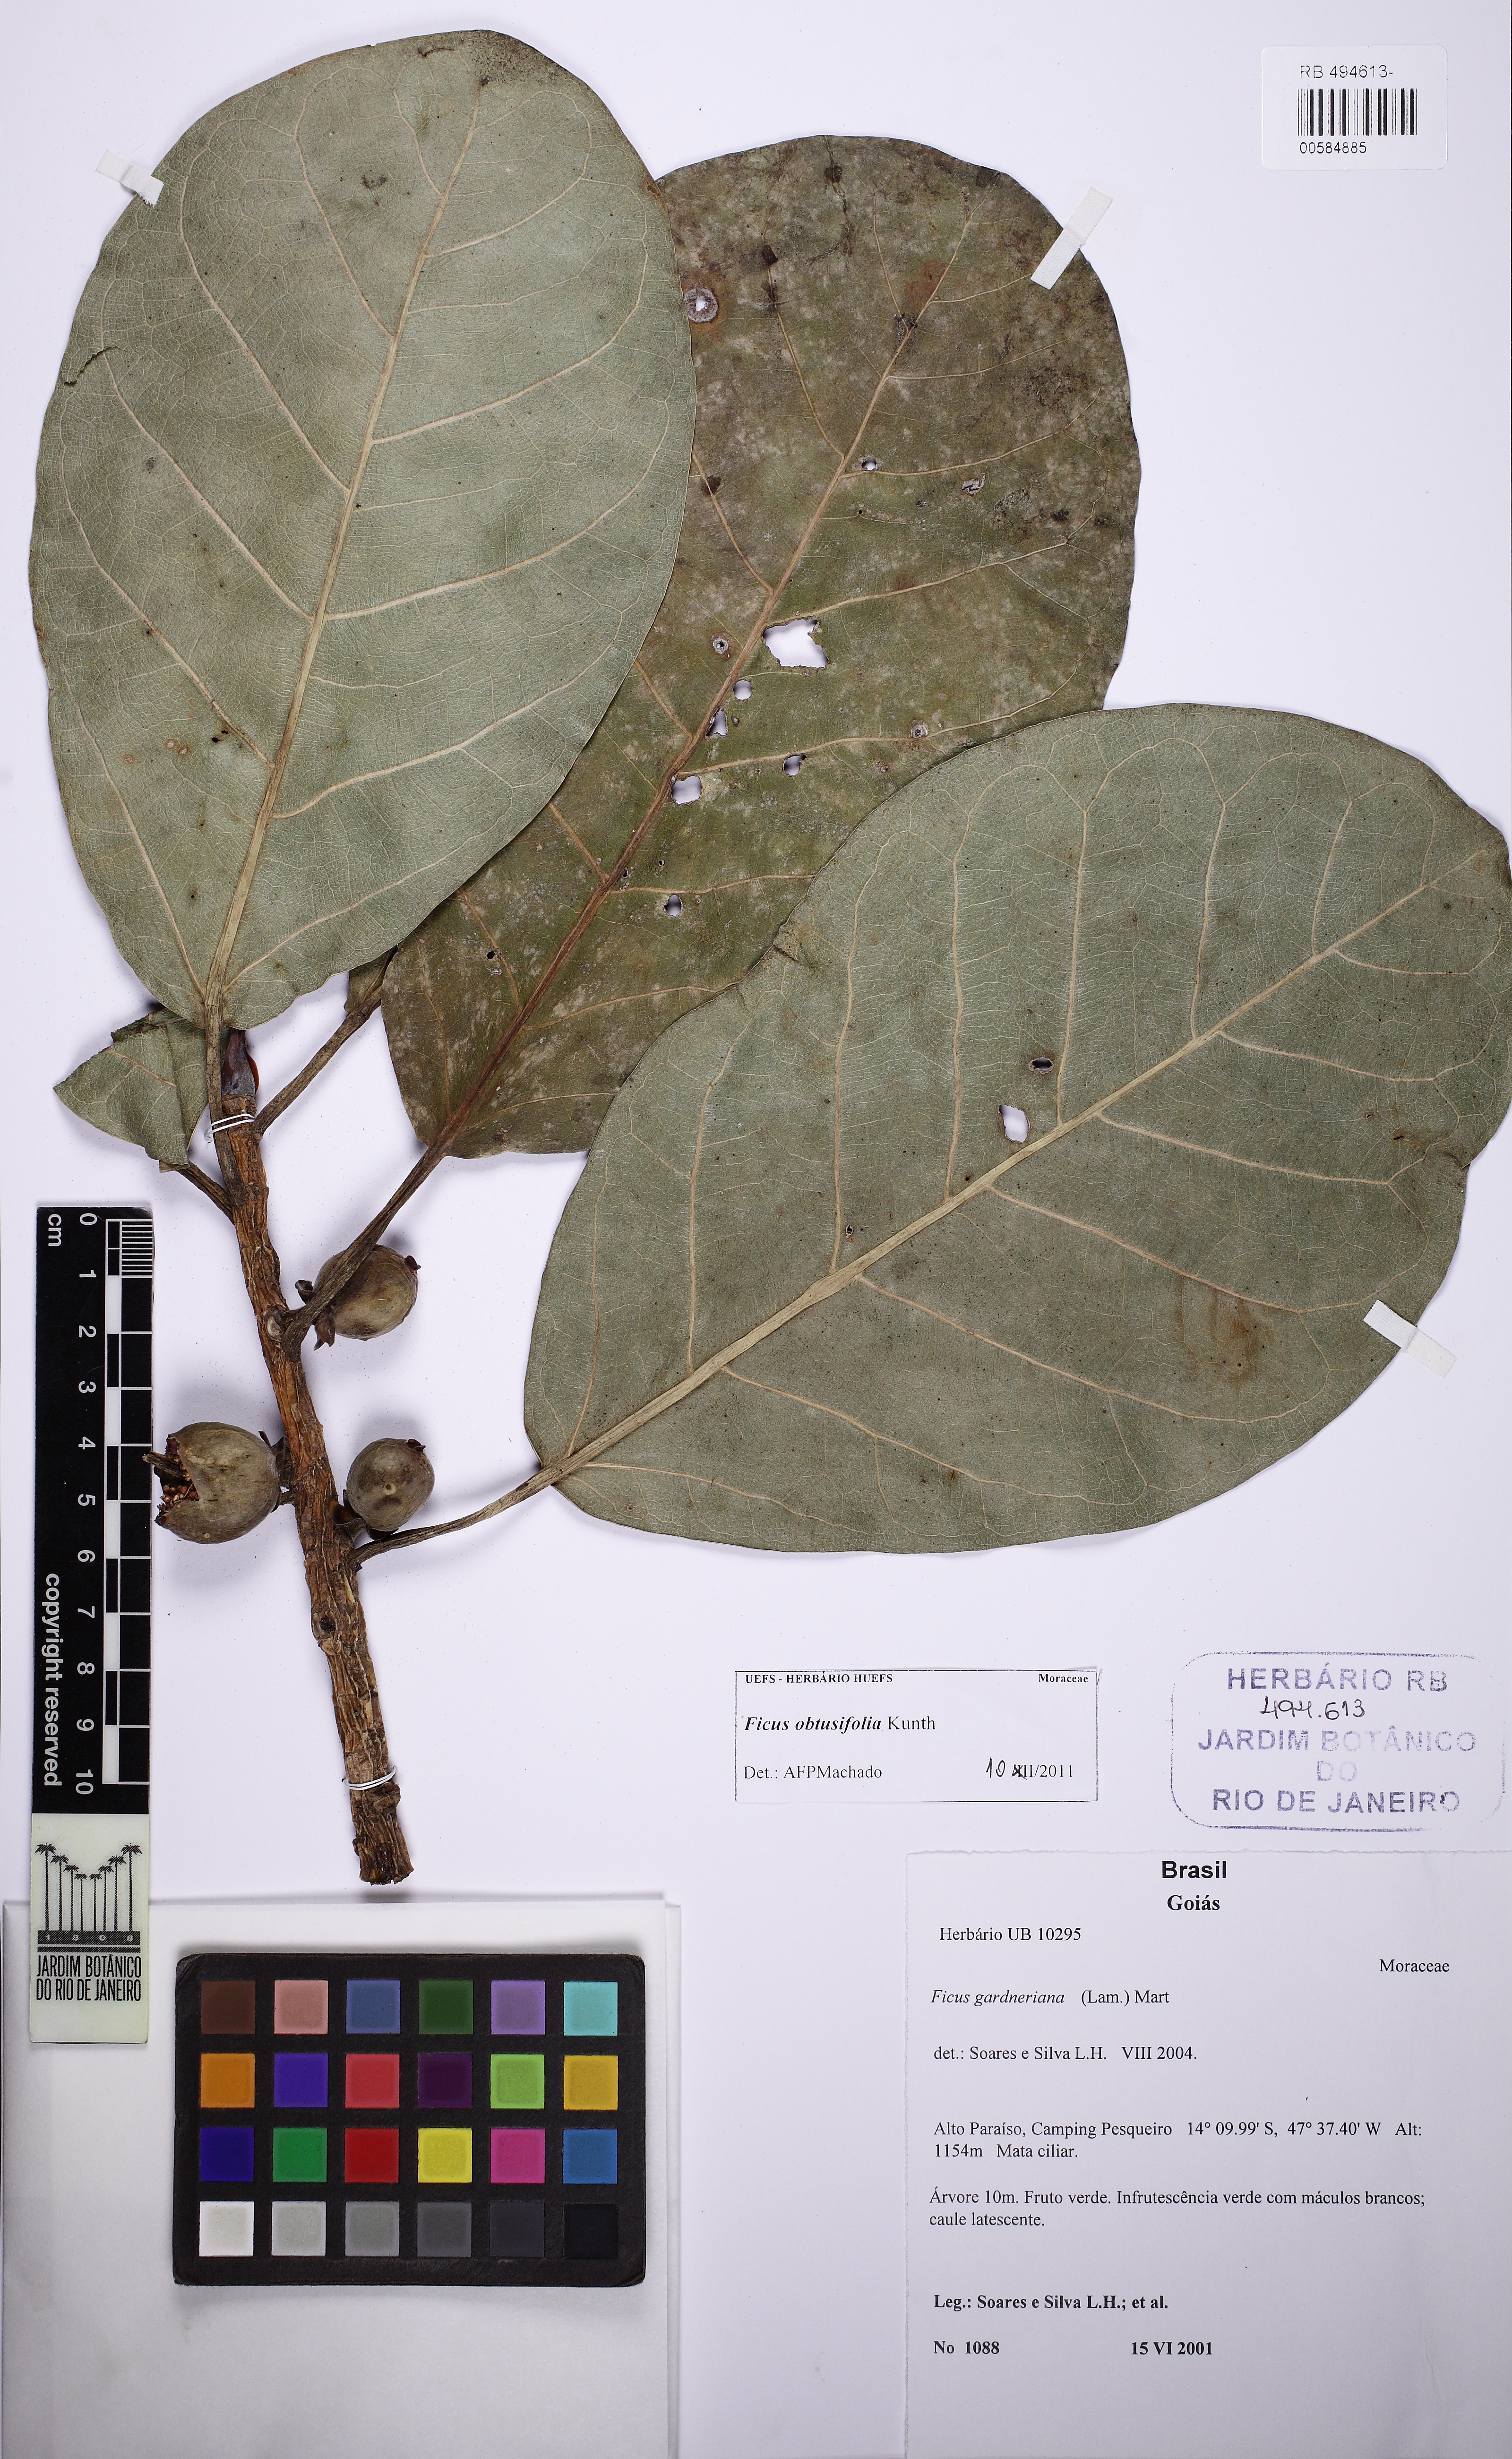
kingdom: Plantae
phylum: Tracheophyta
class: Magnoliopsida
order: Rosales
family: Moraceae
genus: Ficus
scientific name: Ficus obtusifolia
